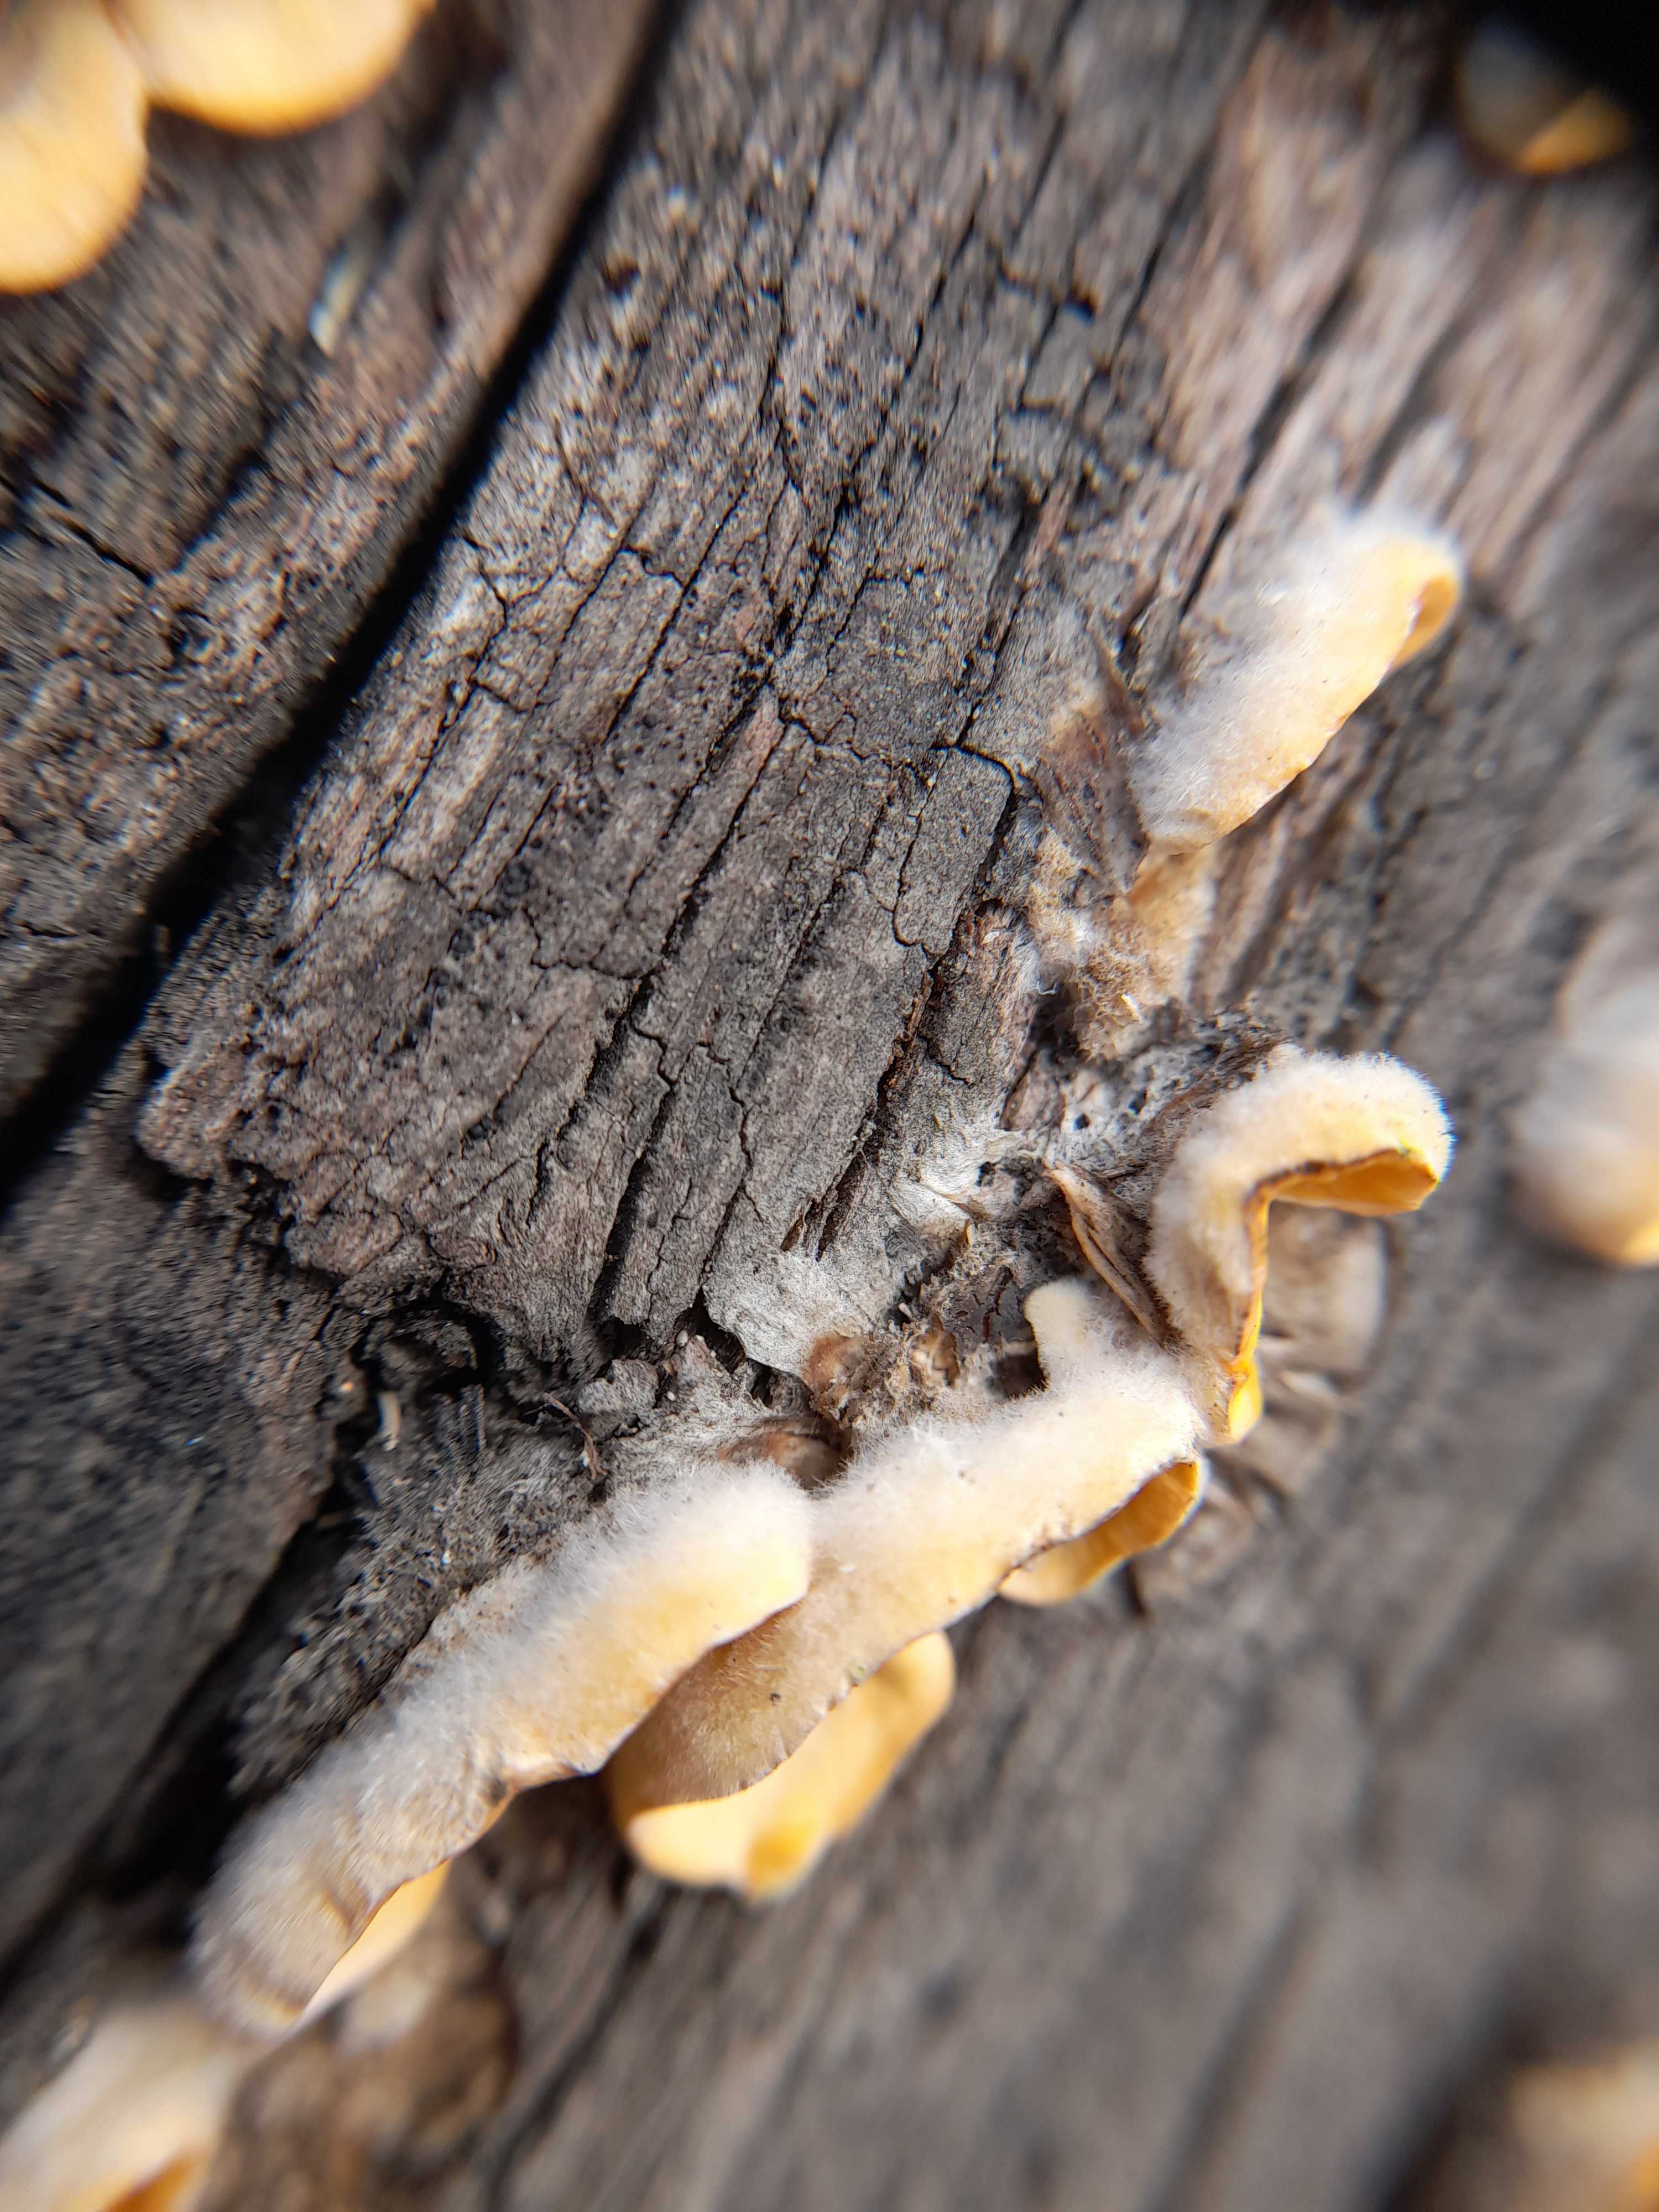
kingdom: Fungi
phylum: Basidiomycota
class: Agaricomycetes
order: Russulales
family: Stereaceae
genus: Stereum
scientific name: Stereum hirsutum
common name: håret lædersvamp
